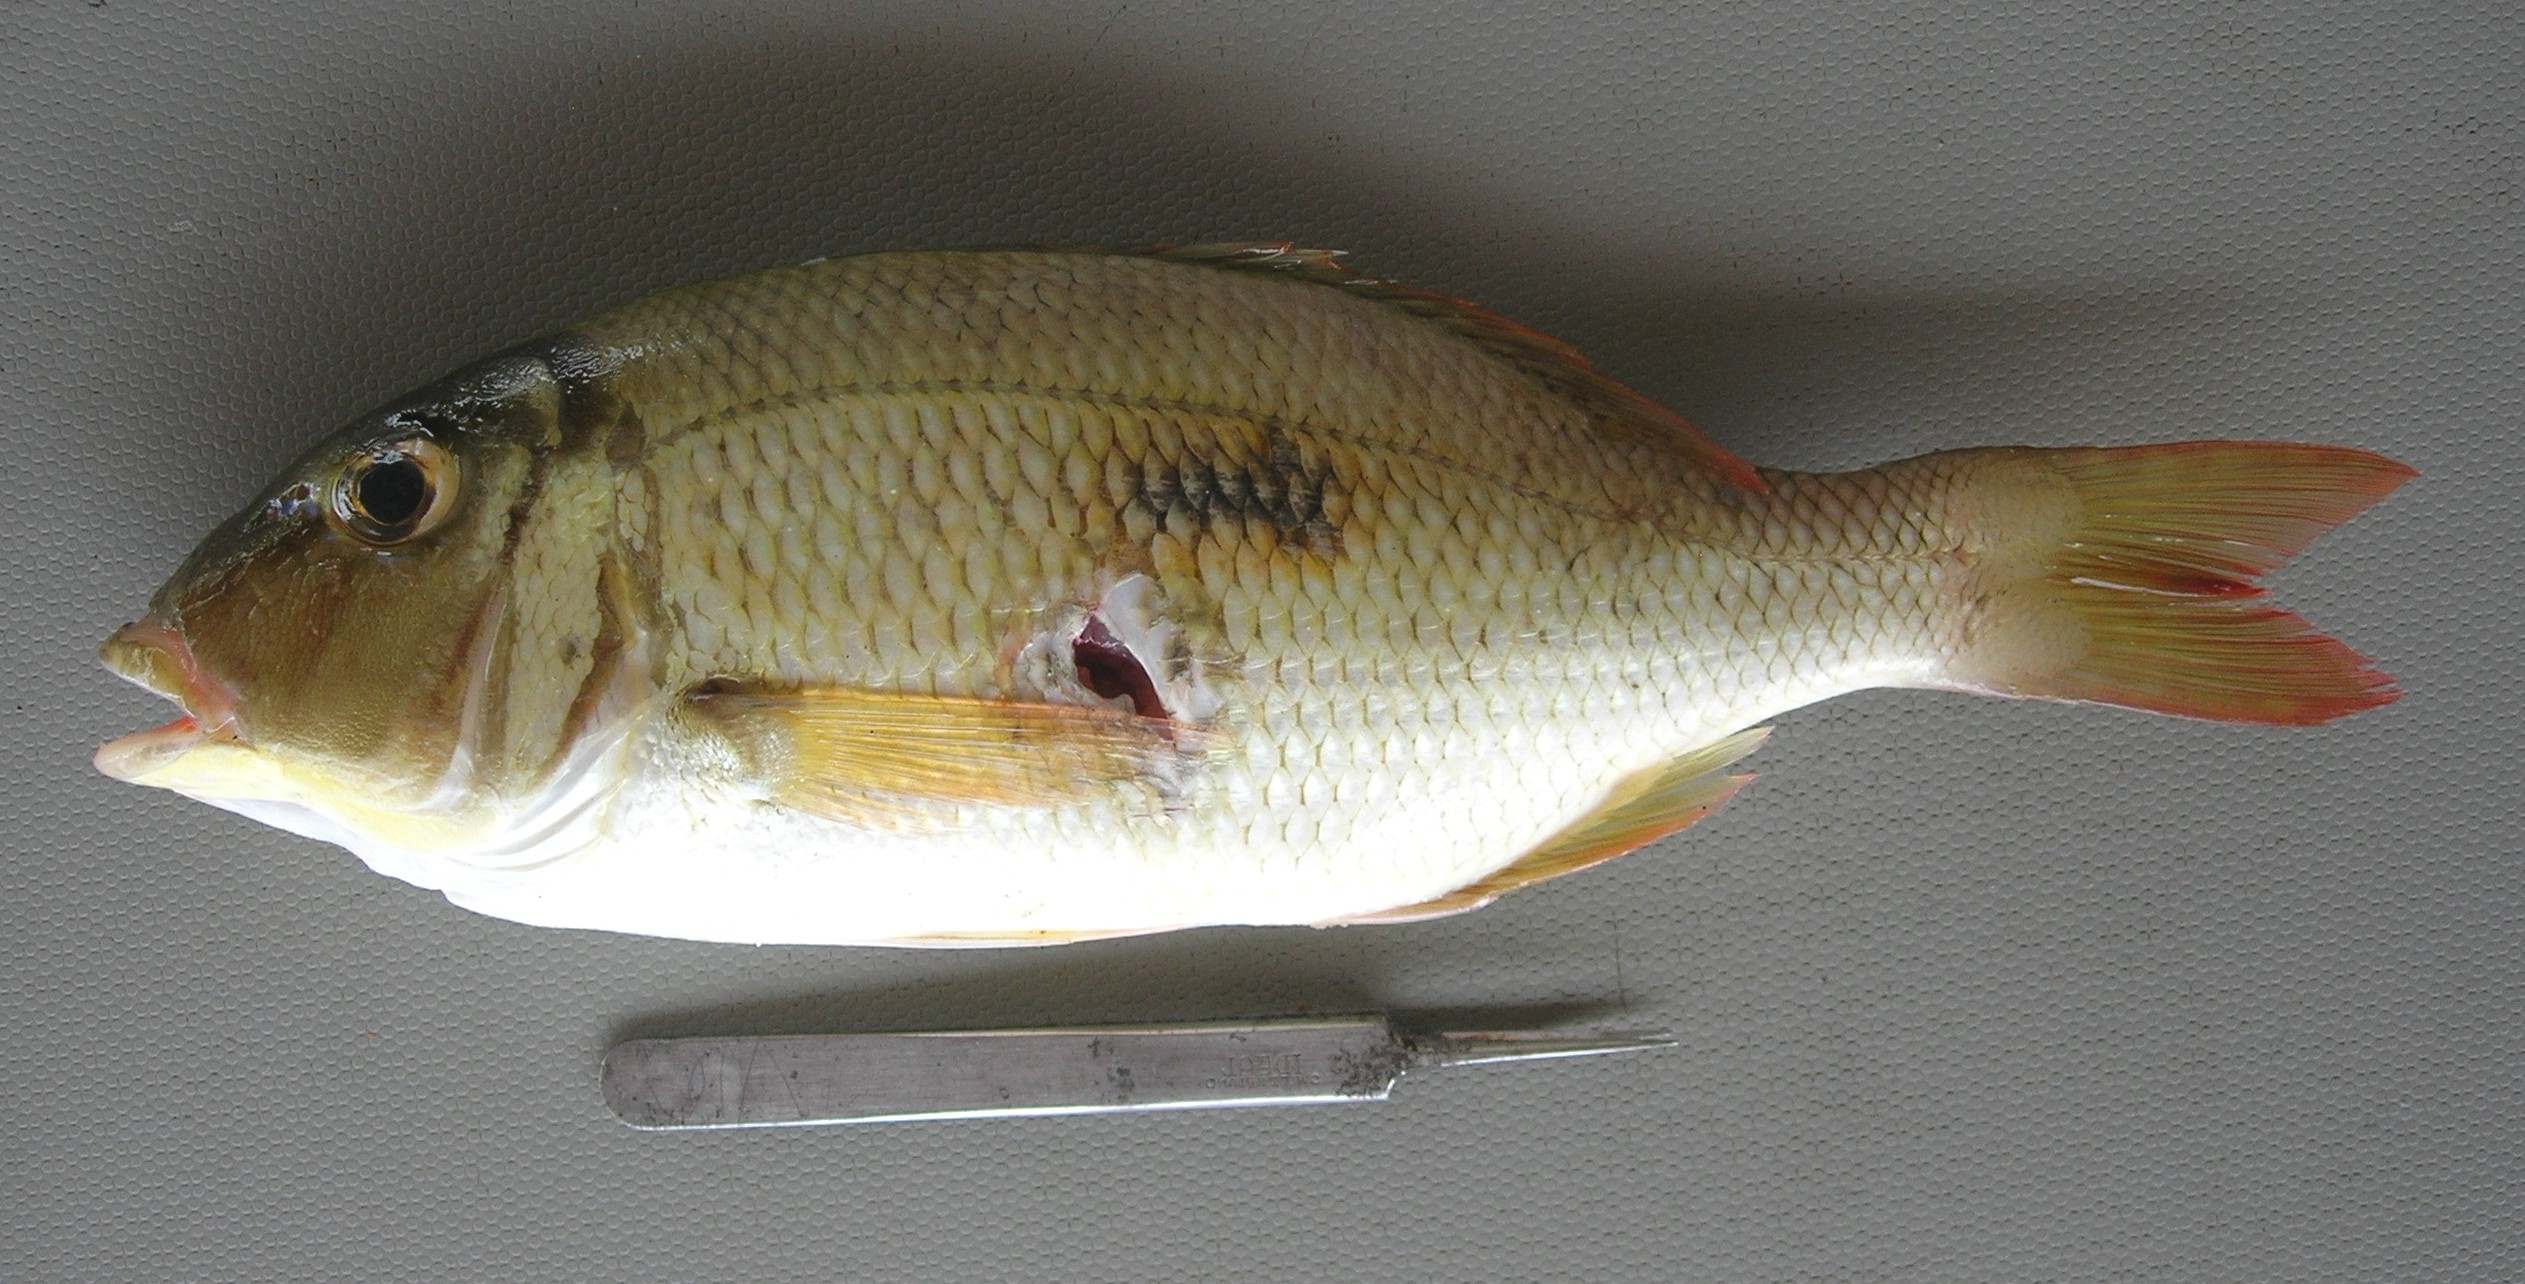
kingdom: Animalia
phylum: Chordata
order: Perciformes
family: Lethrinidae
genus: Lethrinus
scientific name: Lethrinus harak
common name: Blackspot emperor
